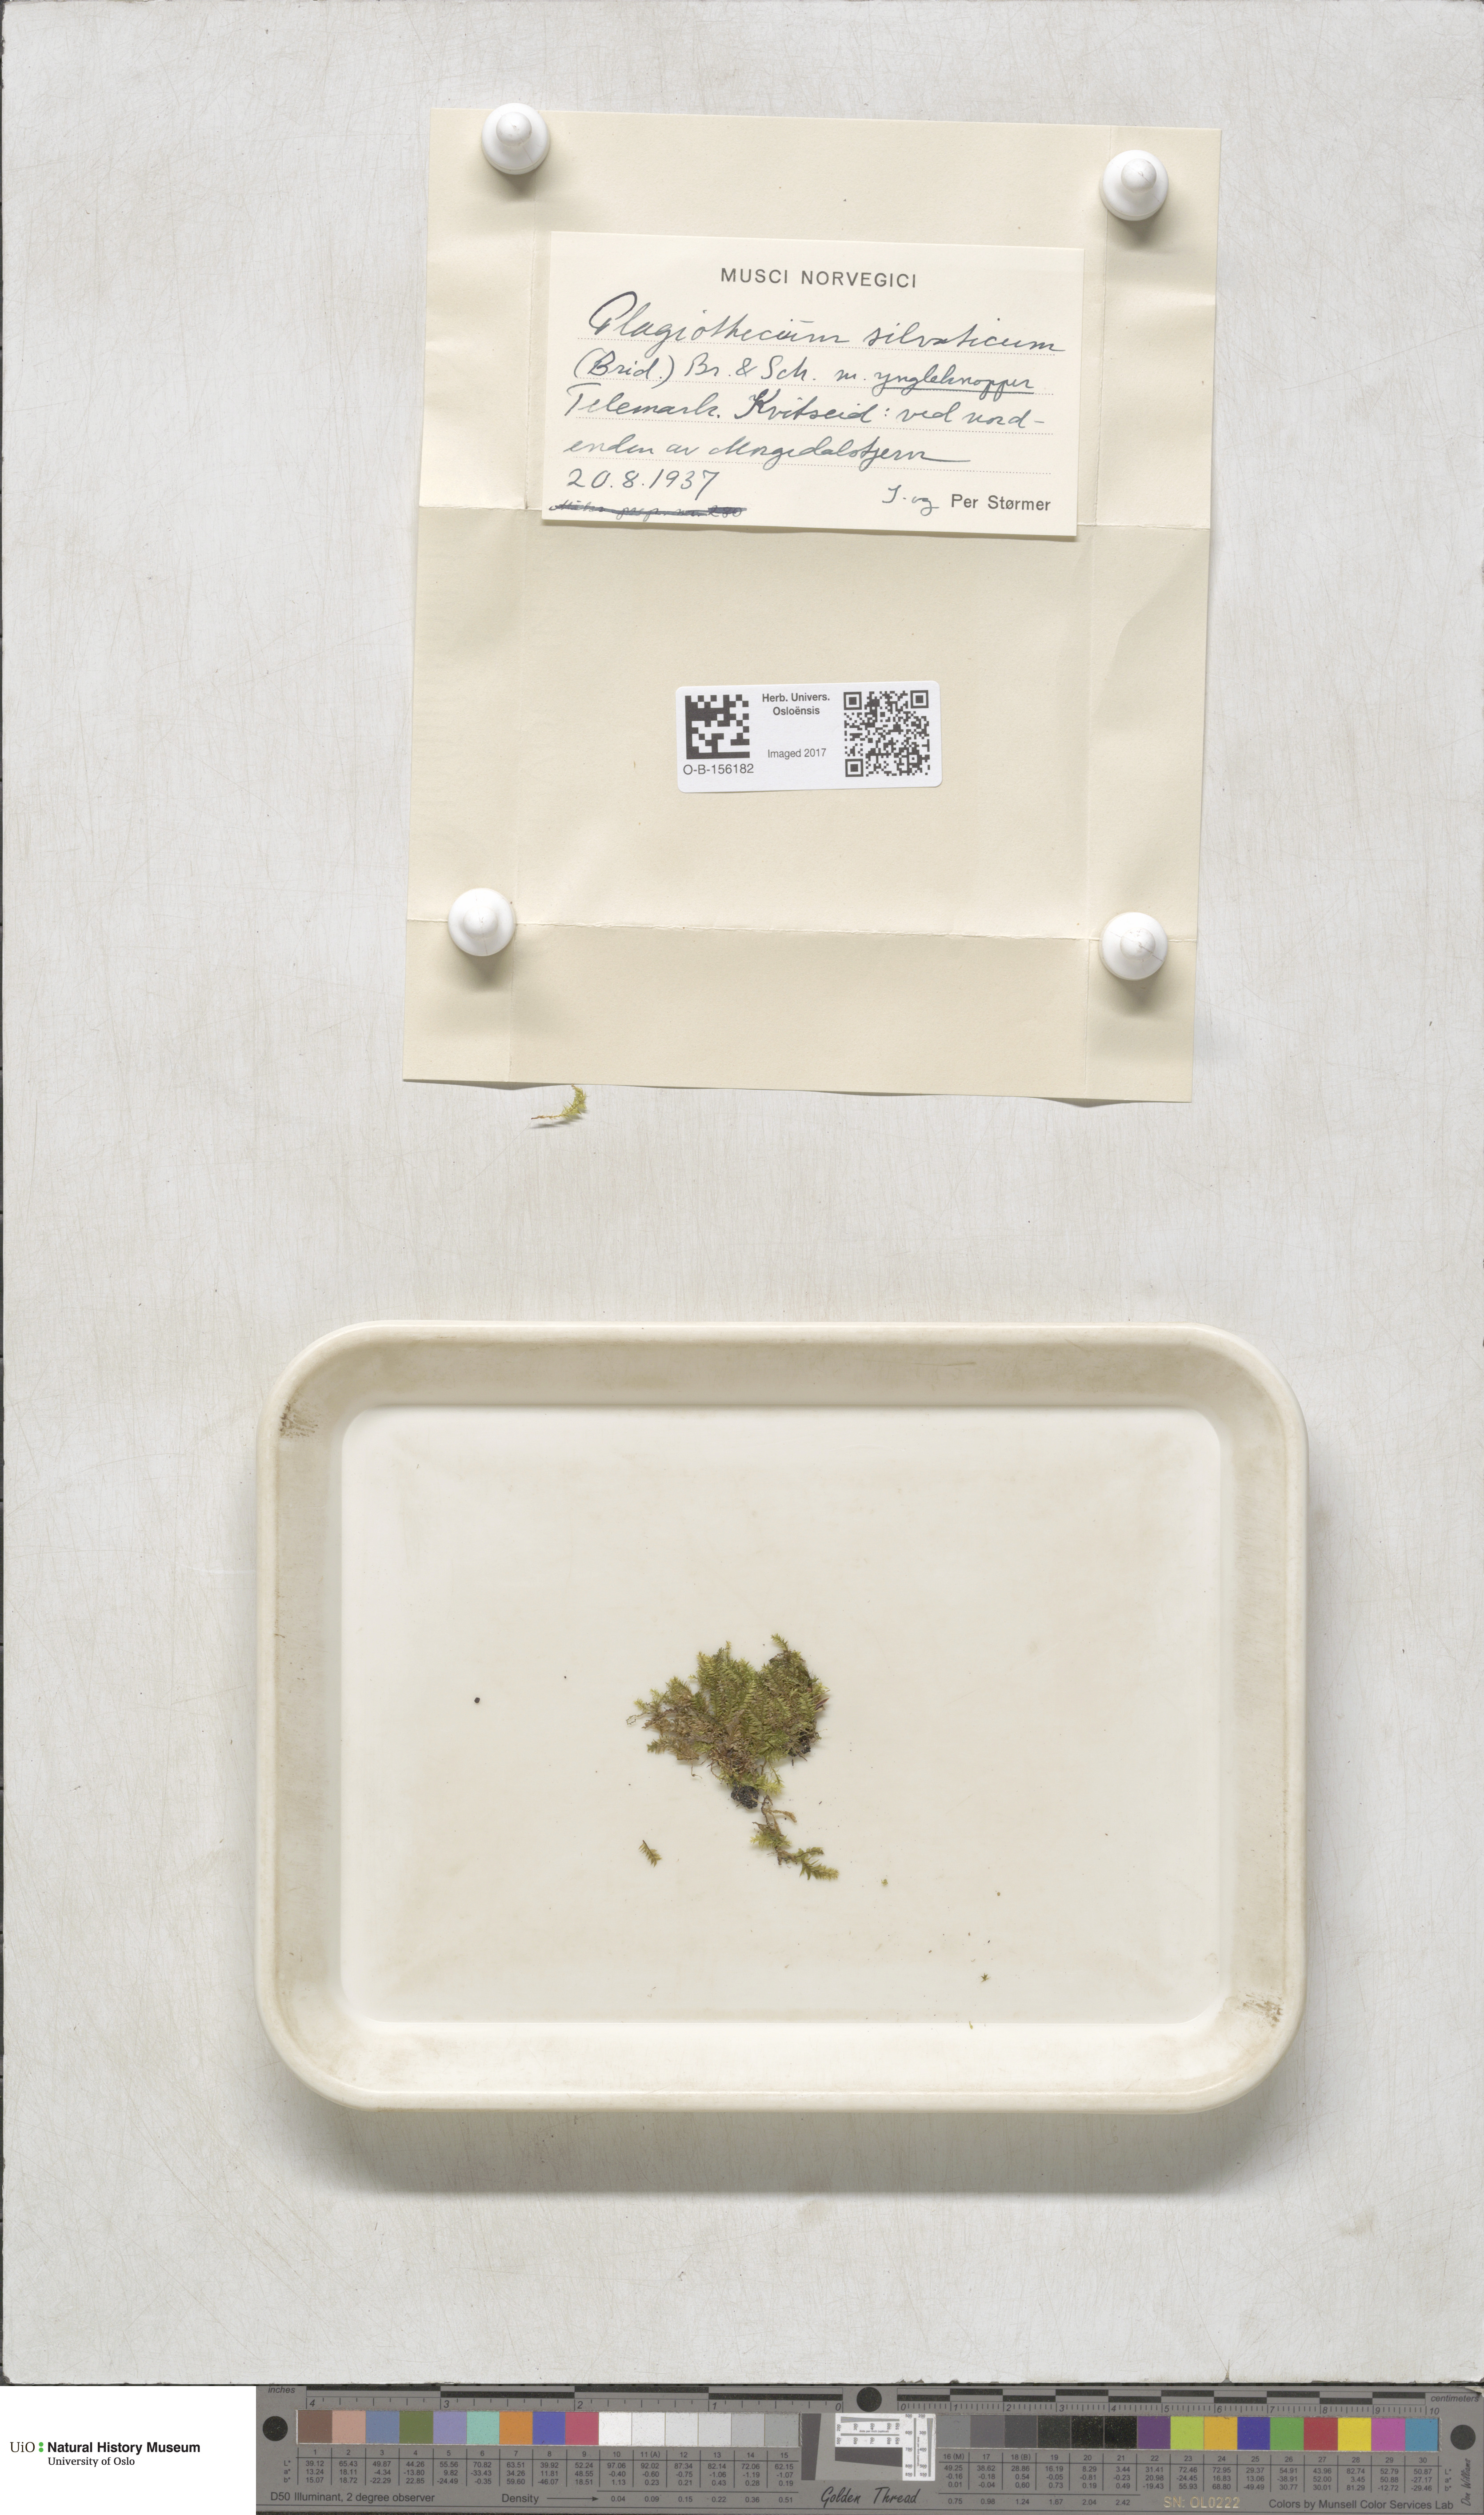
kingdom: Plantae
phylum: Bryophyta
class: Bryopsida
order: Hypnales
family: Plagiotheciaceae
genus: Plagiothecium
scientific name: Plagiothecium nemorale
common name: Woodsy silk-moss
